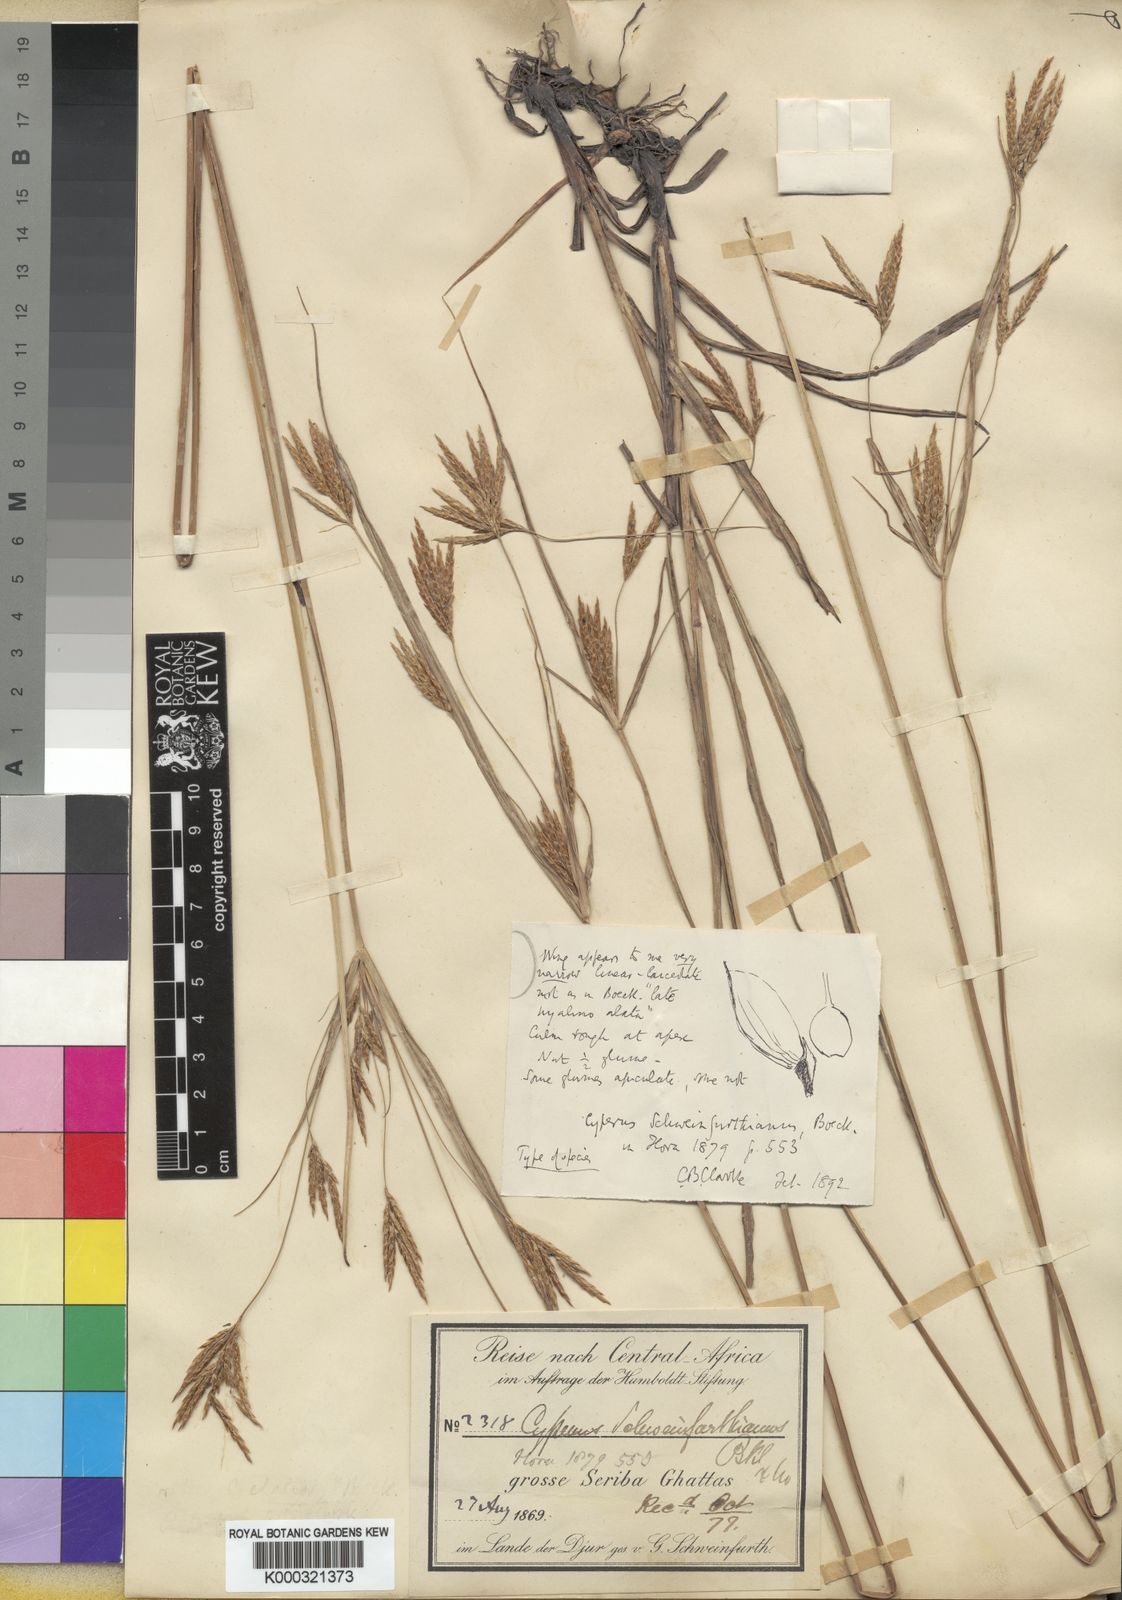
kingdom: Plantae
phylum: Tracheophyta
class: Liliopsida
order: Poales
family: Cyperaceae
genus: Cyperus
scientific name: Cyperus tenuiculmis
